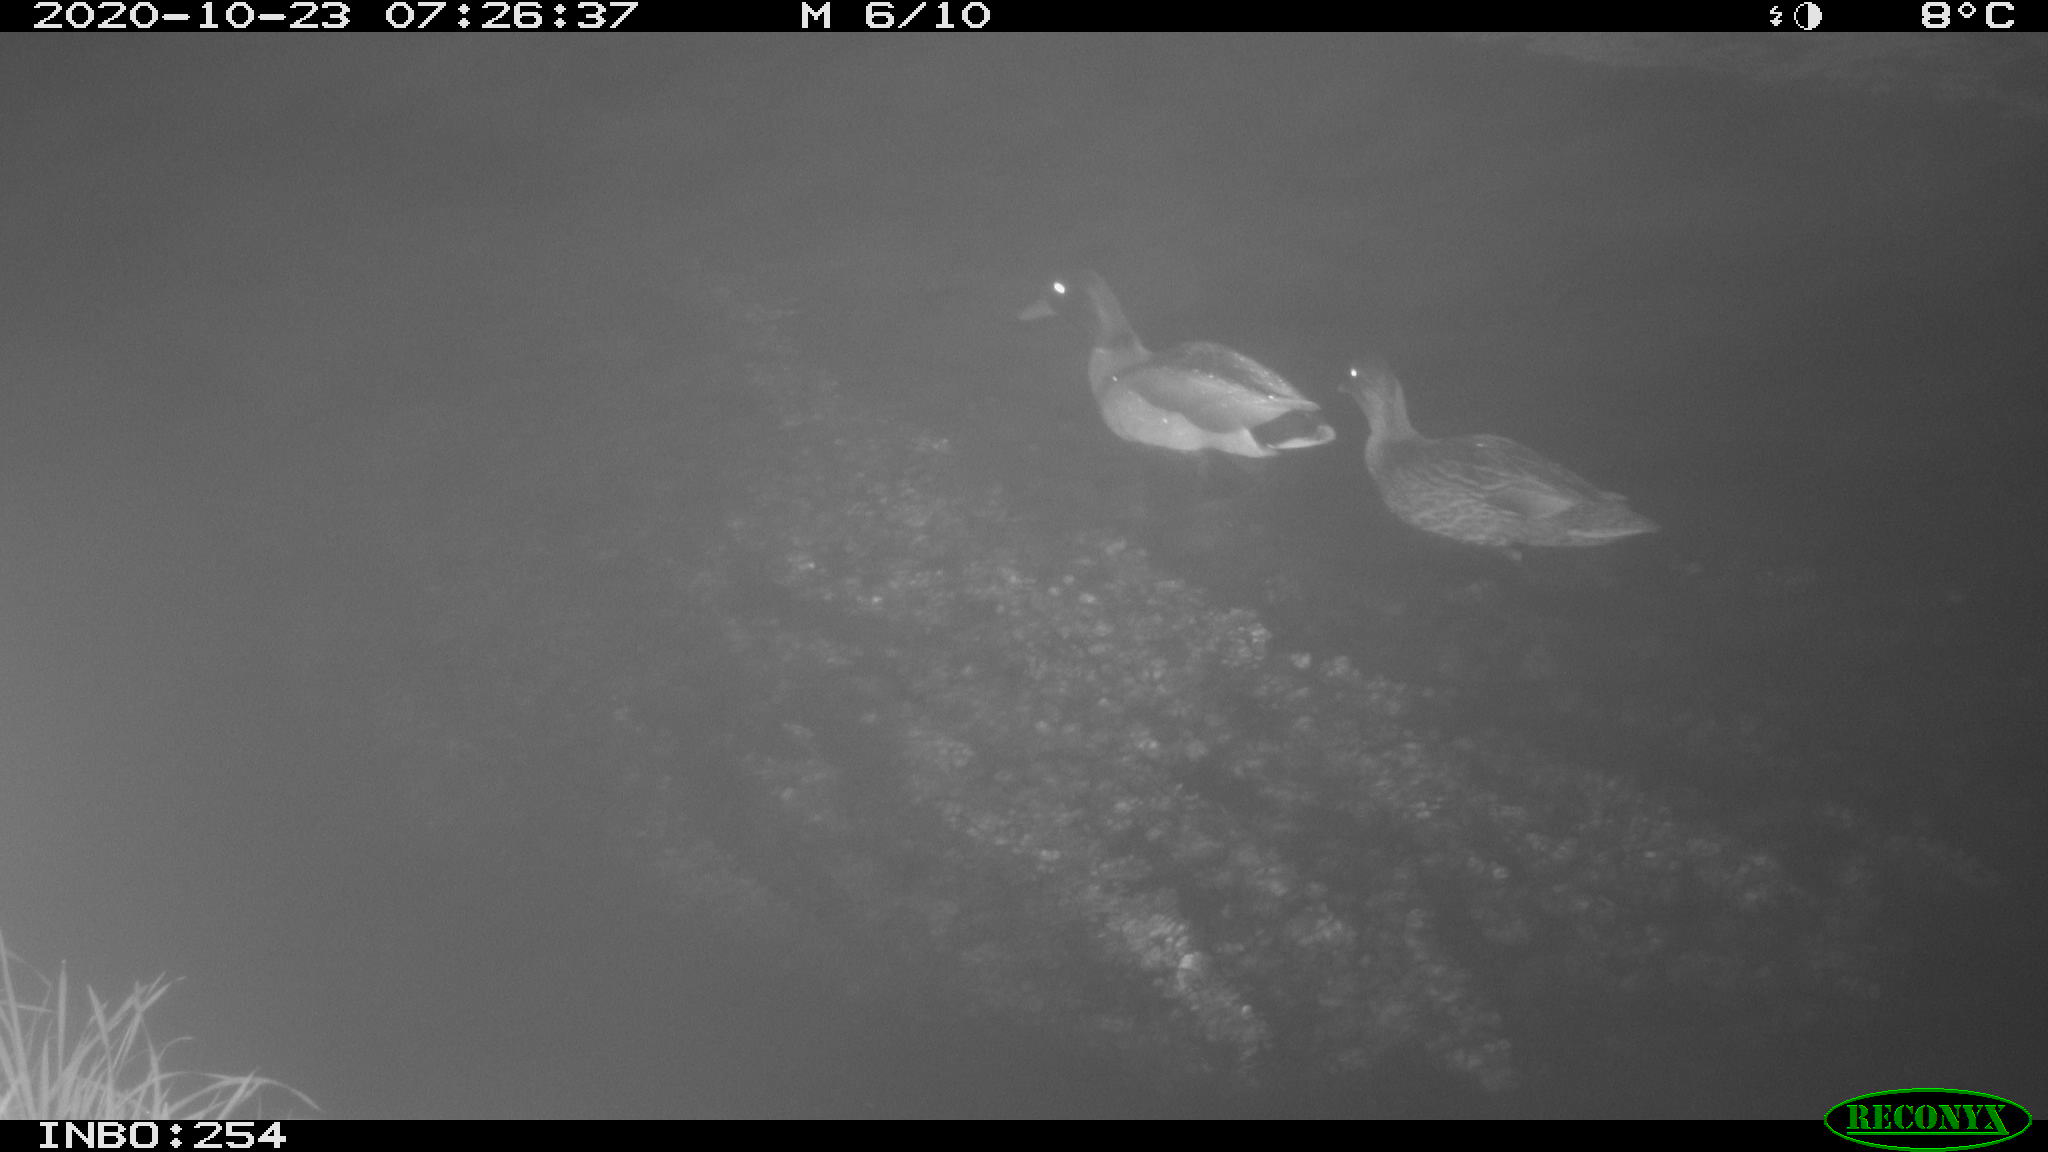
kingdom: Animalia
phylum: Chordata
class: Aves
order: Anseriformes
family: Anatidae
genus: Anas
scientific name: Anas platyrhynchos
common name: Mallard
